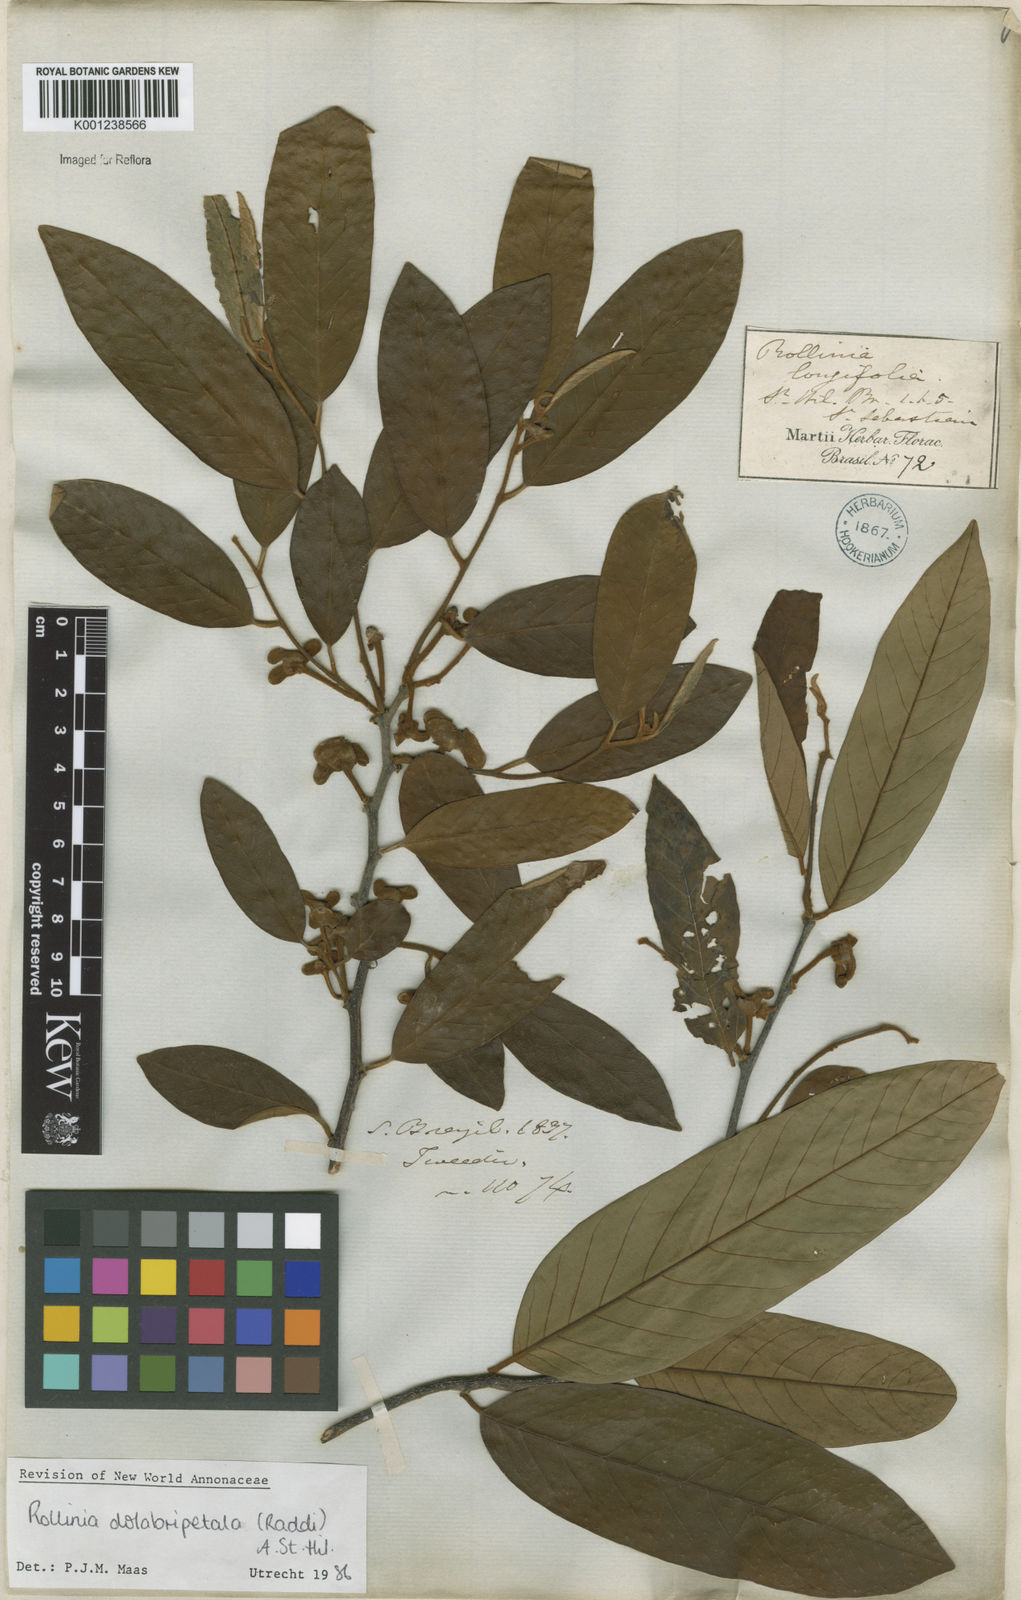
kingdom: Plantae
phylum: Tracheophyta
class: Magnoliopsida
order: Magnoliales
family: Annonaceae
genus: Annona
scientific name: Annona
